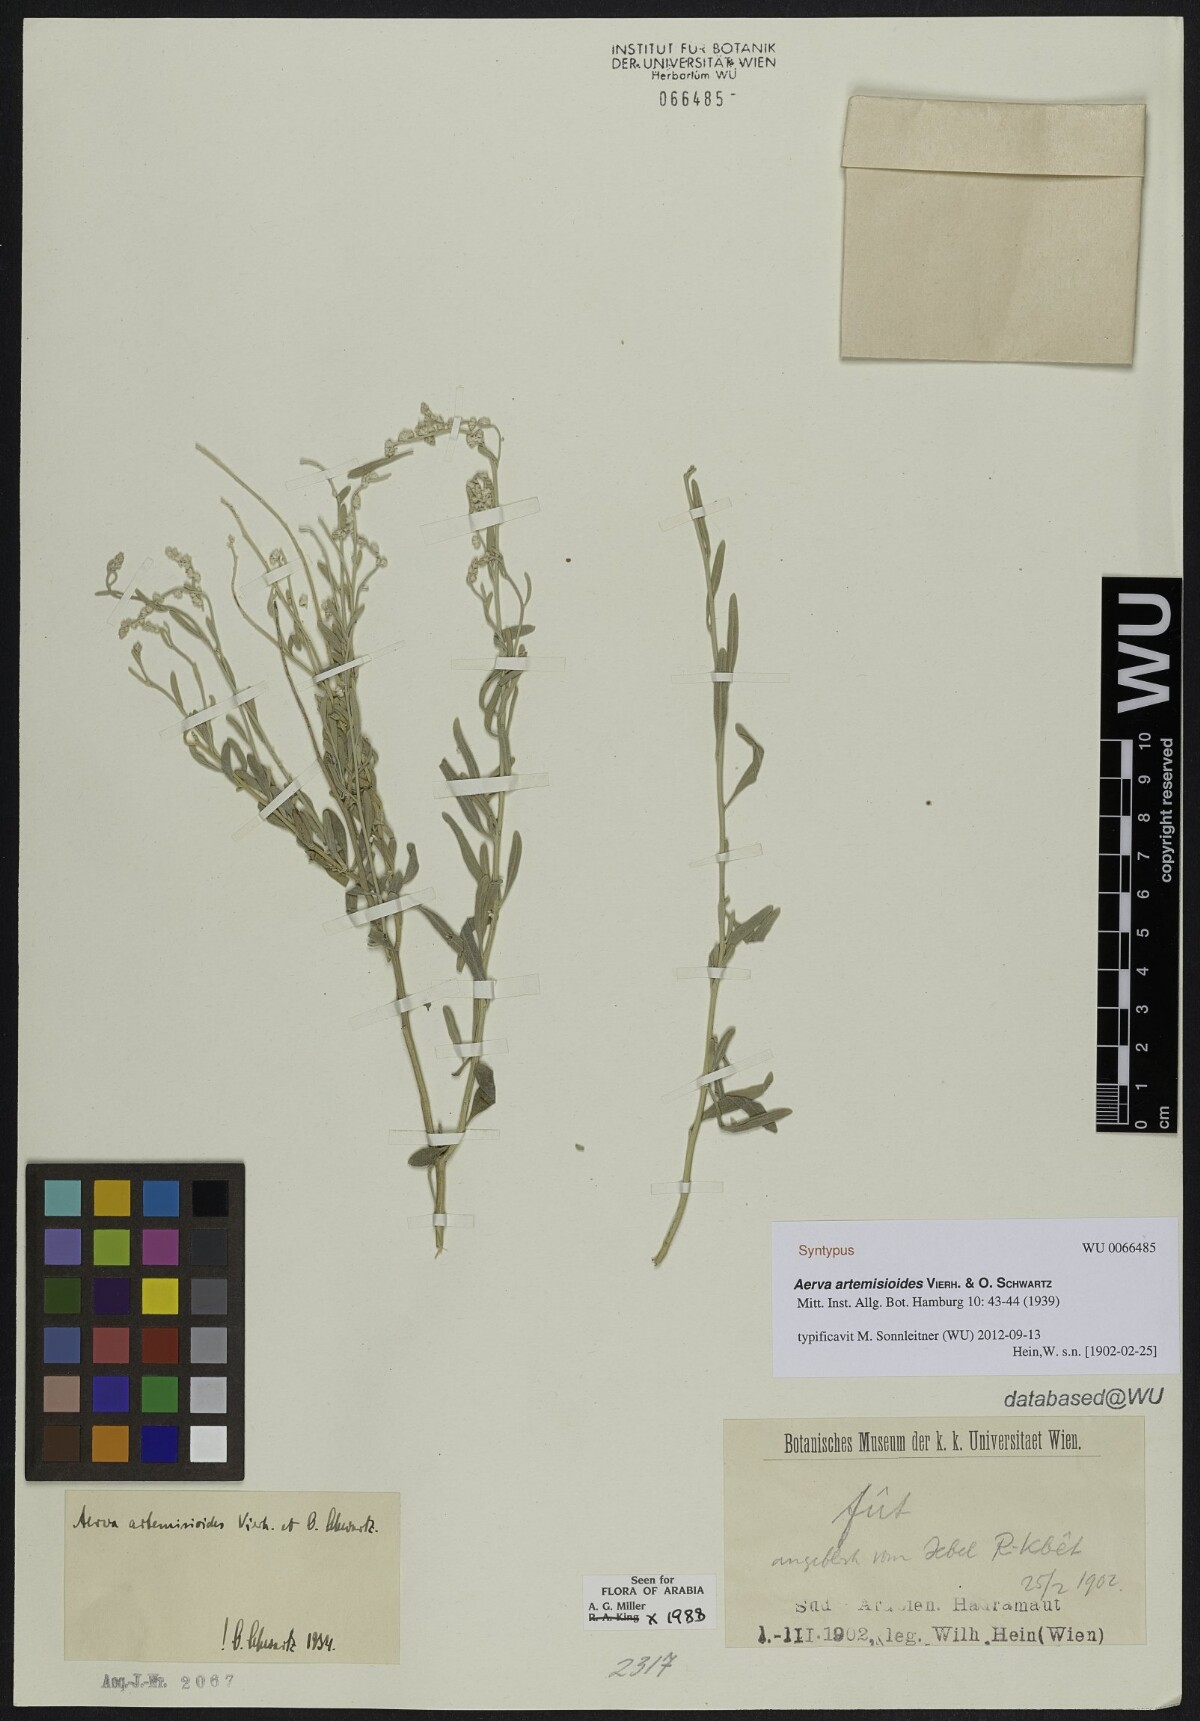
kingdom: Plantae
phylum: Tracheophyta
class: Magnoliopsida
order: Caryophyllales
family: Amaranthaceae
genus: Wadithamnus
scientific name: Wadithamnus artemisioides
